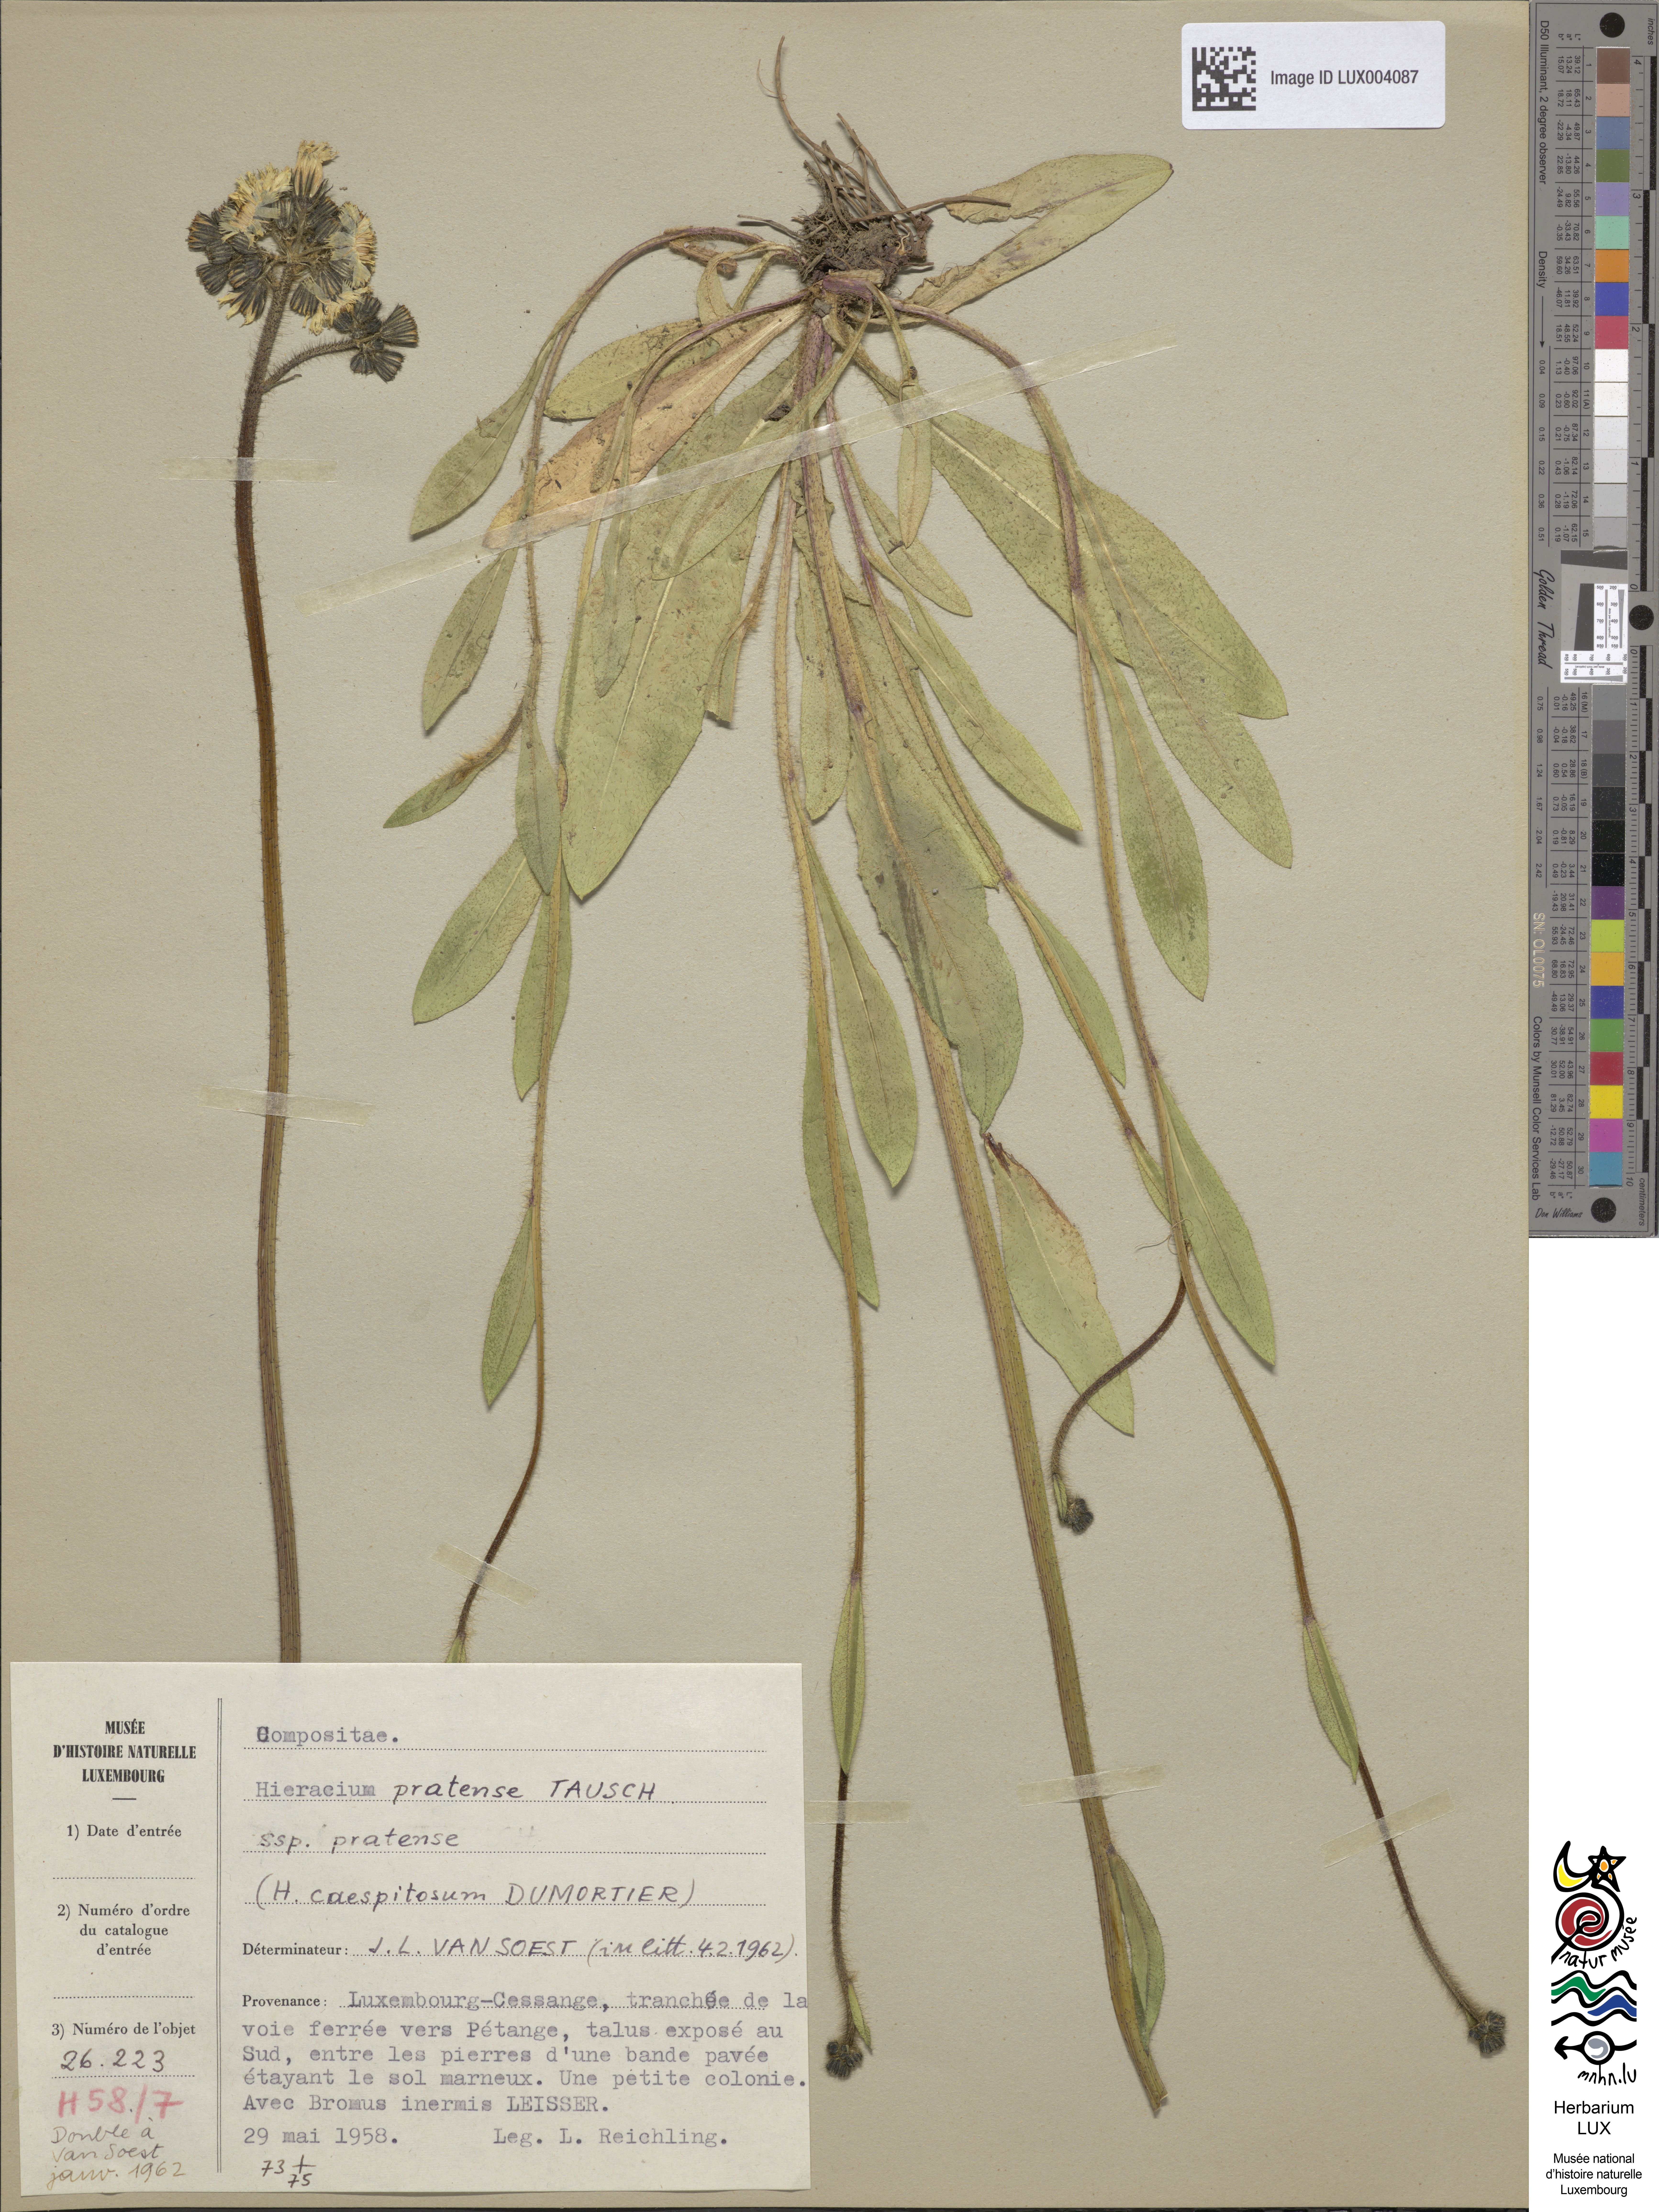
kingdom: Plantae
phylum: Tracheophyta
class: Magnoliopsida
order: Asterales
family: Asteraceae
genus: Pilosella
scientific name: Pilosella caespitosa
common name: Yellow fox-and-cubs
